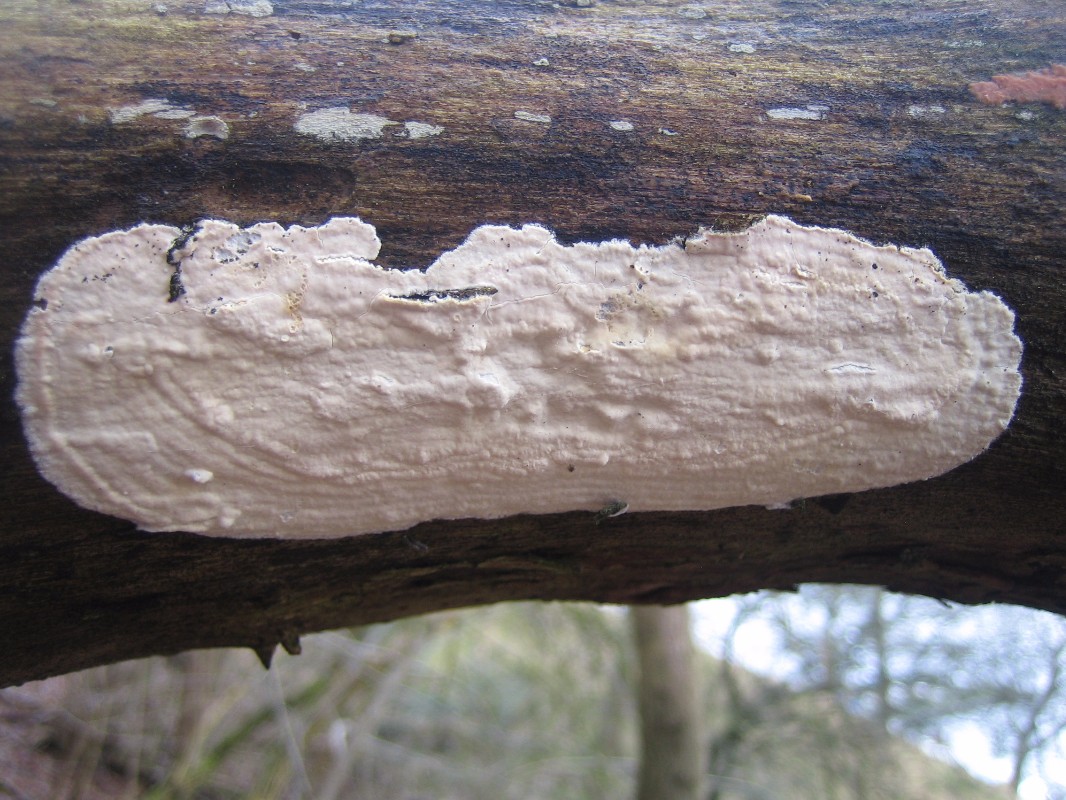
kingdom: Fungi
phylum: Basidiomycota
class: Agaricomycetes
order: Agaricales
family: Cyphellaceae
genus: Granulobasidium
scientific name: Granulobasidium vellereum
